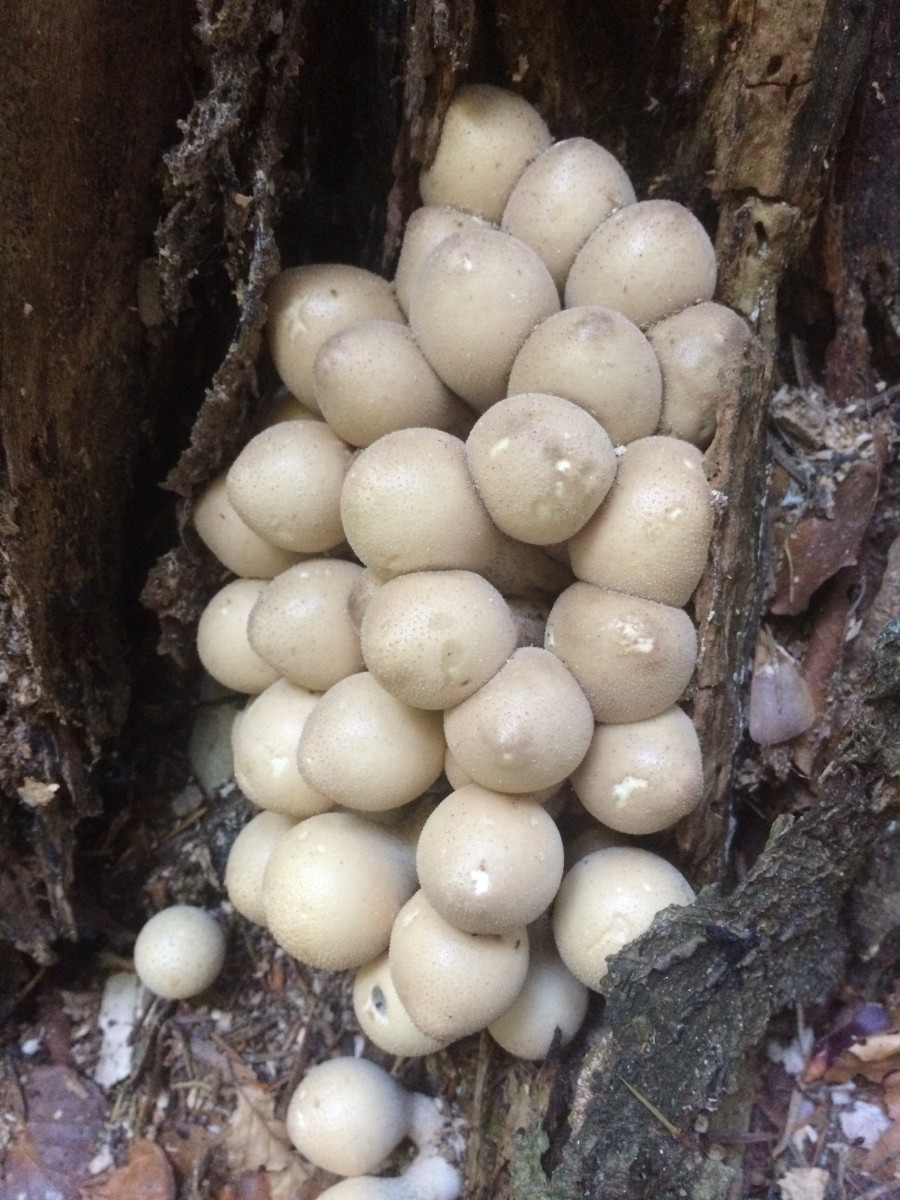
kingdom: Fungi
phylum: Basidiomycota
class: Agaricomycetes
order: Agaricales
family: Lycoperdaceae
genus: Apioperdon
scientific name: Apioperdon pyriforme
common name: pære-støvbold
